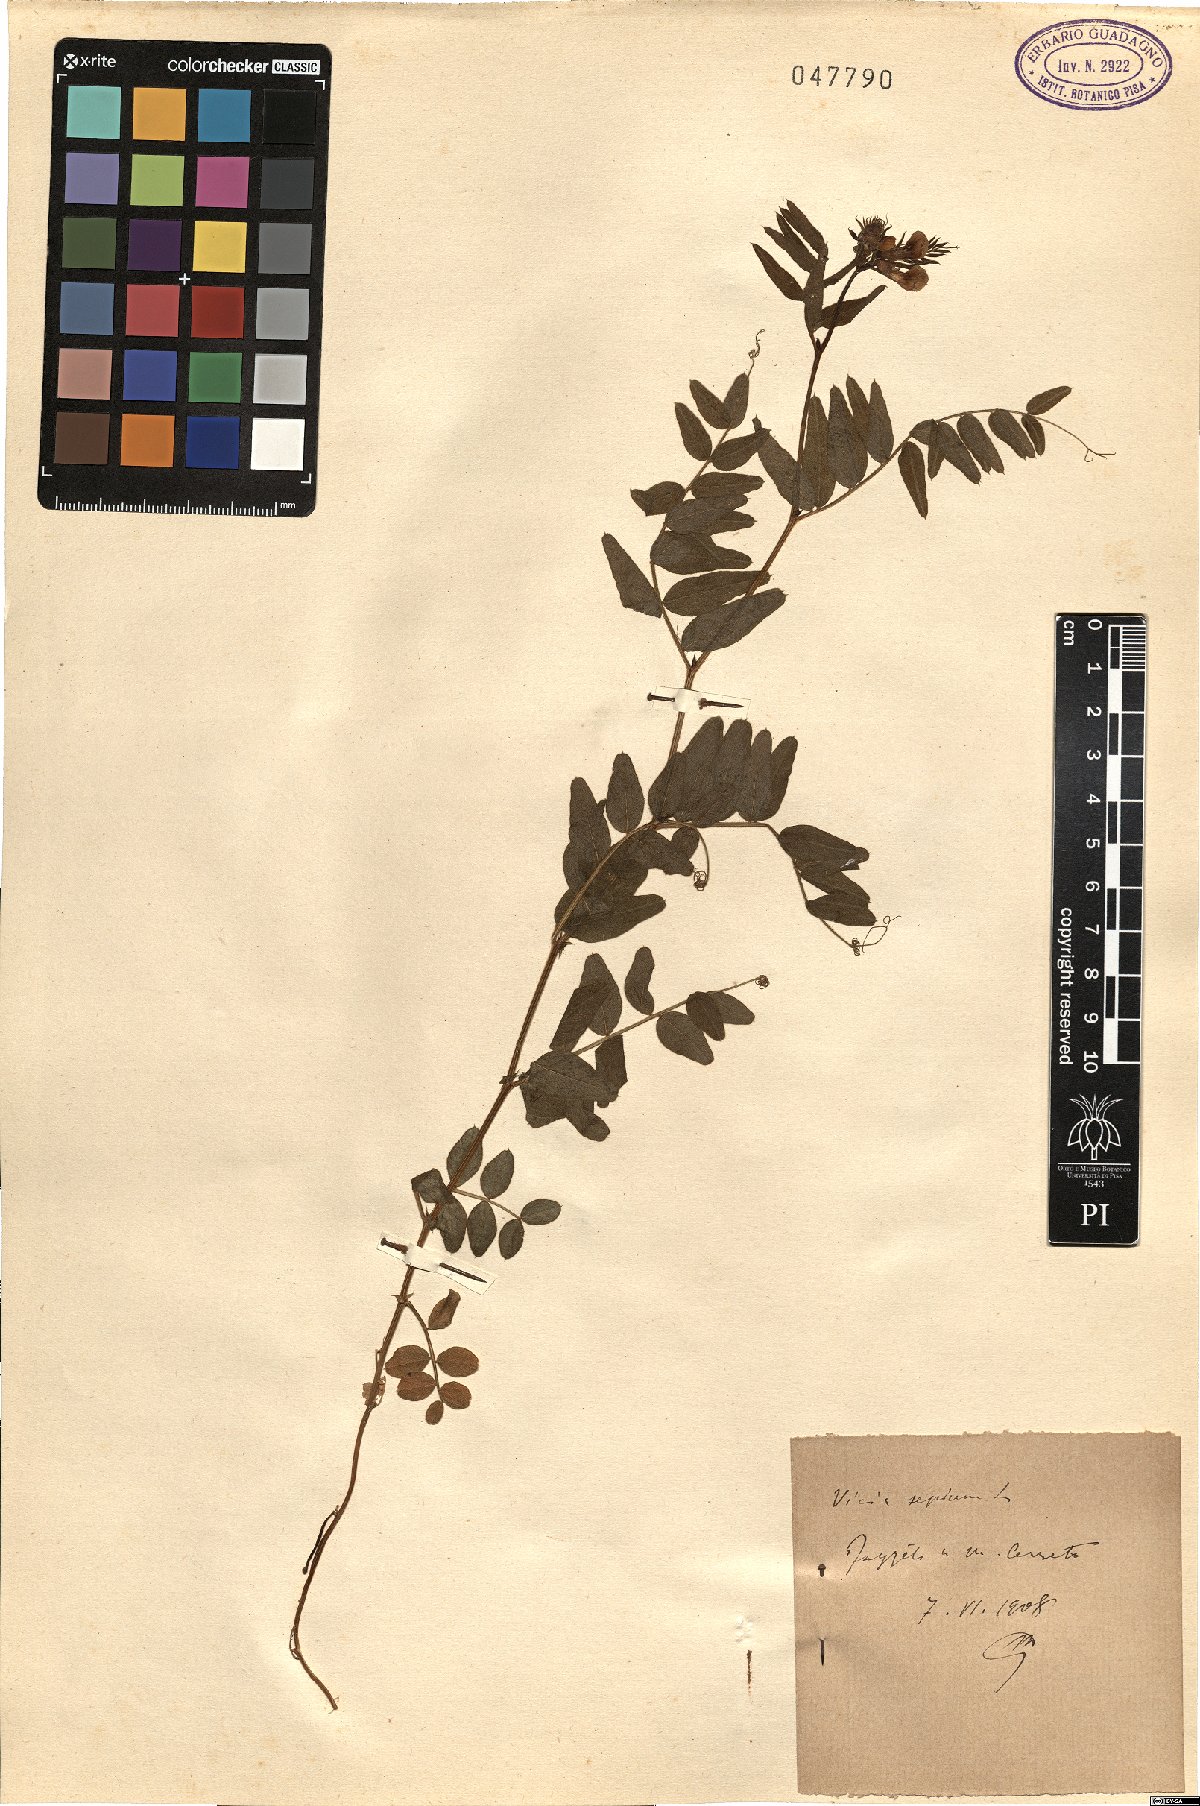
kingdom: Plantae
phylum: Tracheophyta
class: Magnoliopsida
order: Fabales
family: Fabaceae
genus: Vicia
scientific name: Vicia sepium
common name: Bush vetch
